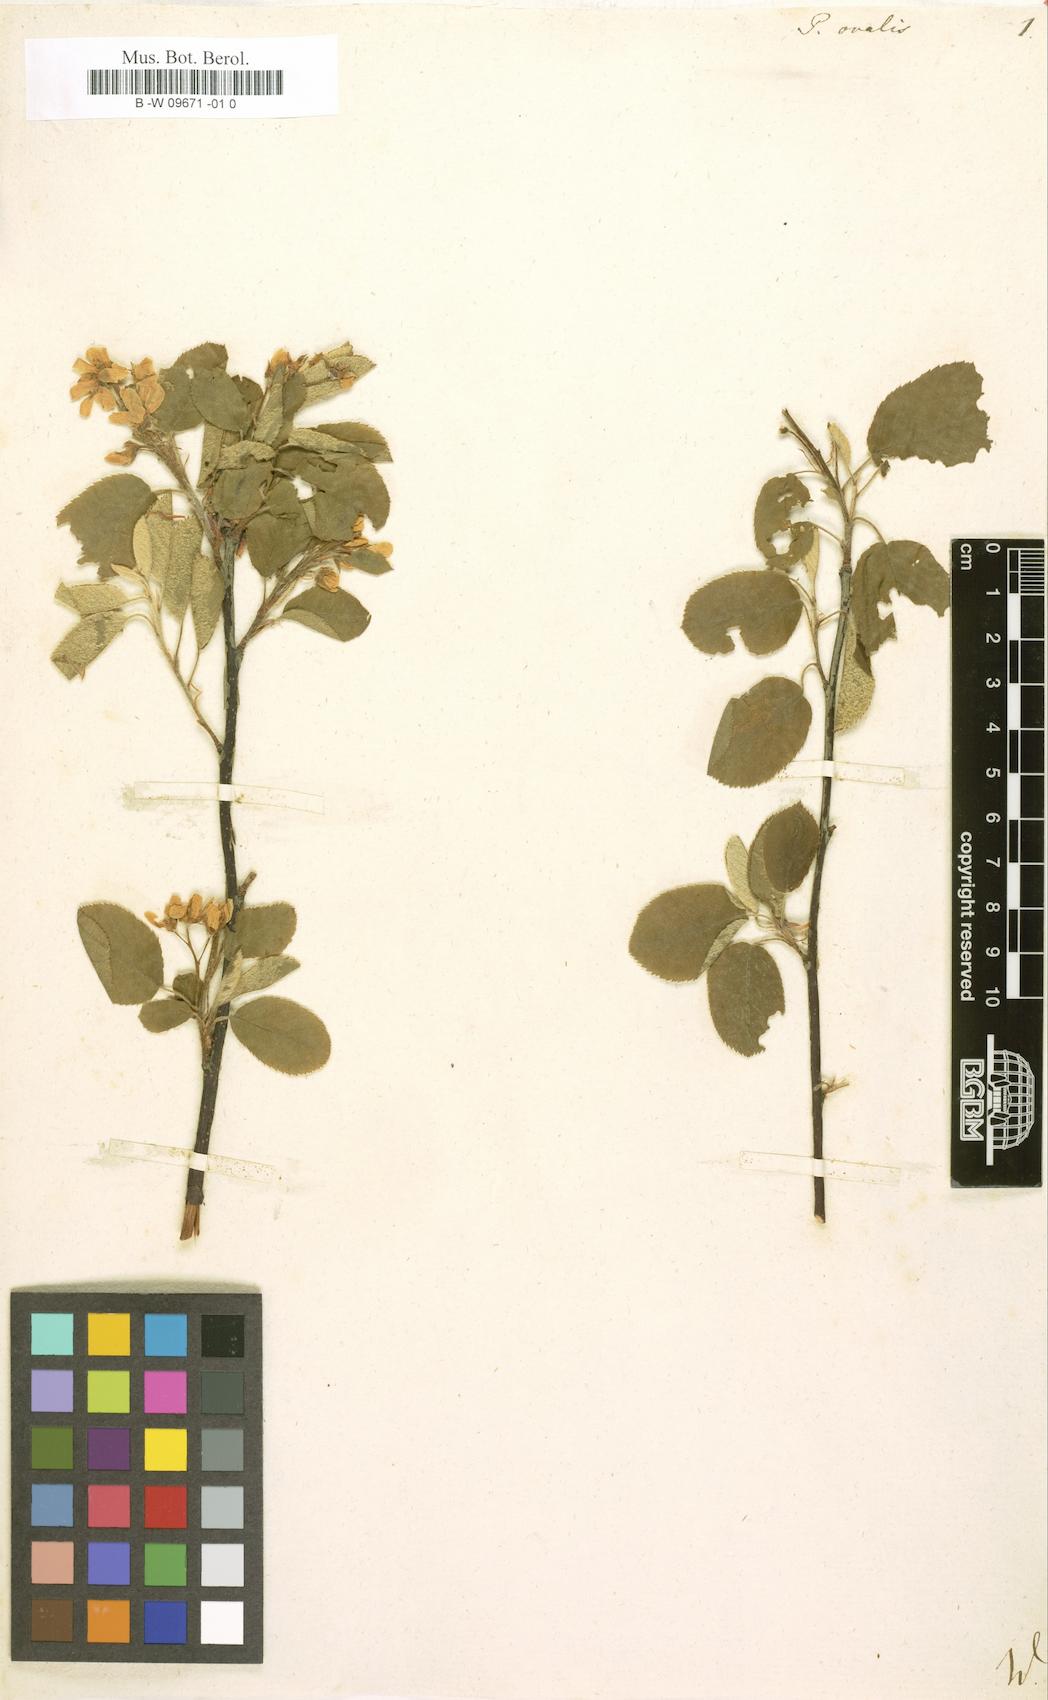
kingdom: Plantae
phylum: Tracheophyta
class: Magnoliopsida
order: Rosales
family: Rosaceae
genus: Amelanchier
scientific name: Amelanchier
